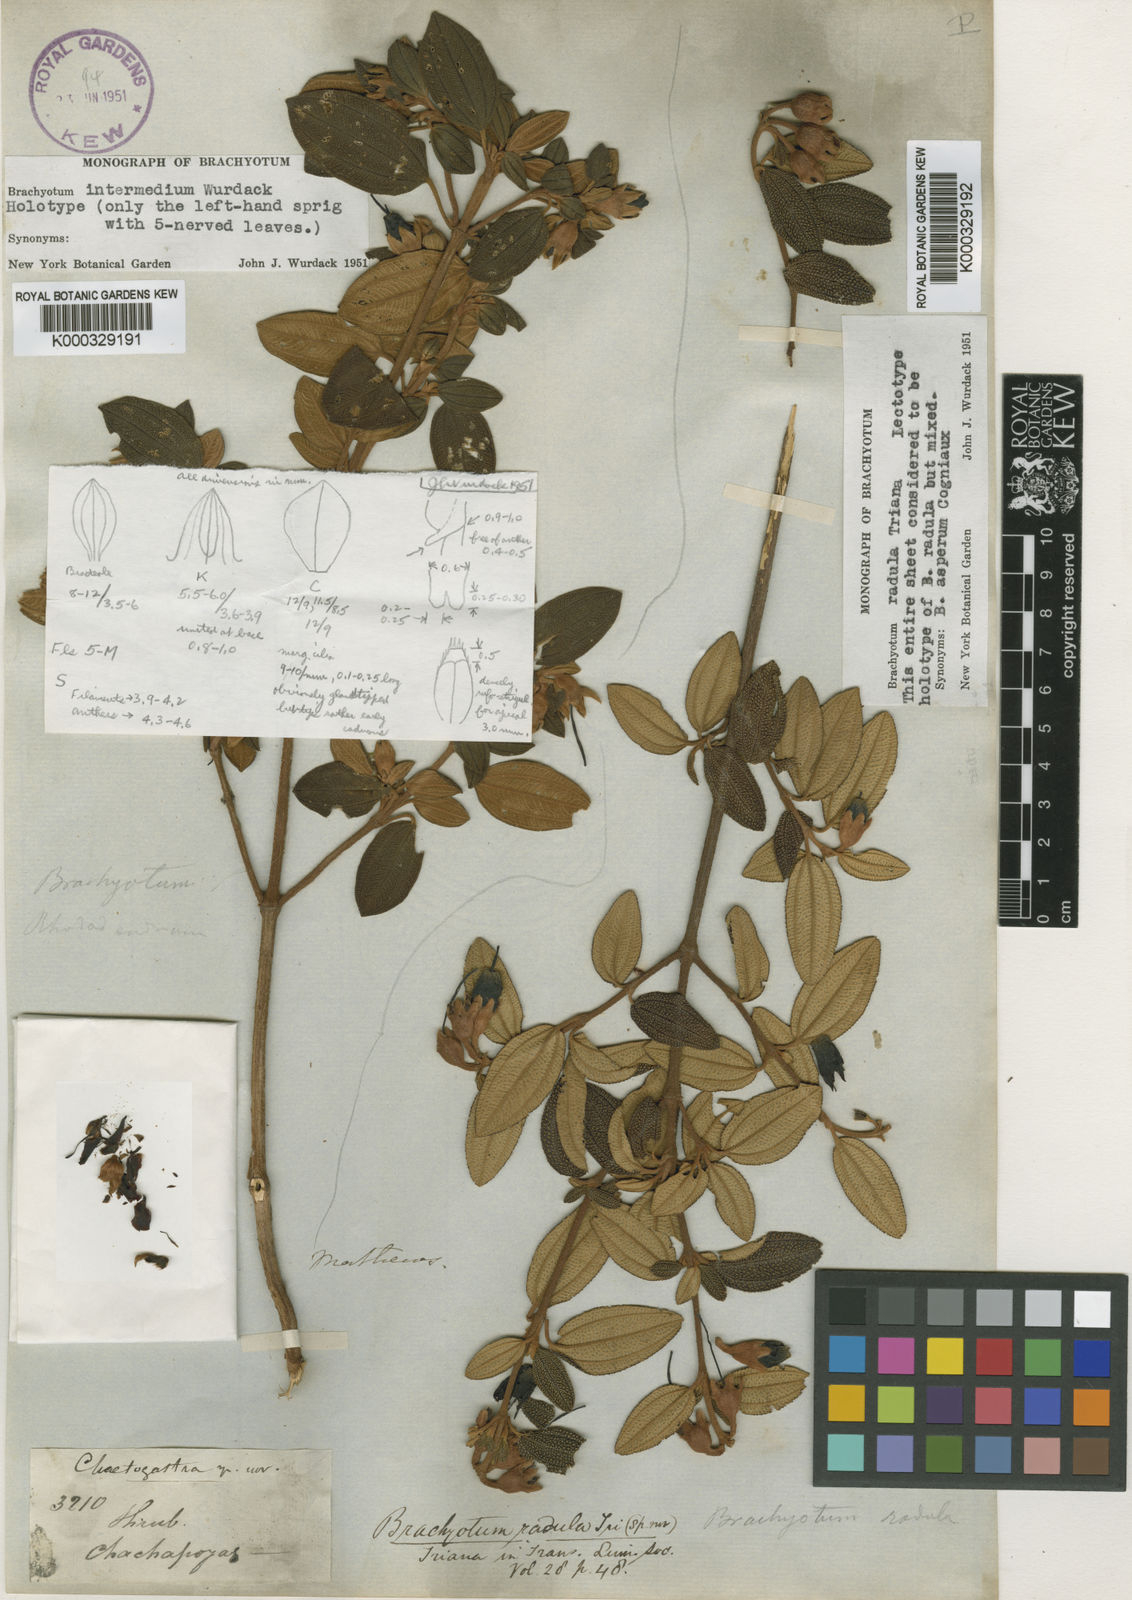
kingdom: Plantae
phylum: Tracheophyta
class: Magnoliopsida
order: Myrtales
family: Melastomataceae
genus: Brachyotum
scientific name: Brachyotum radula
